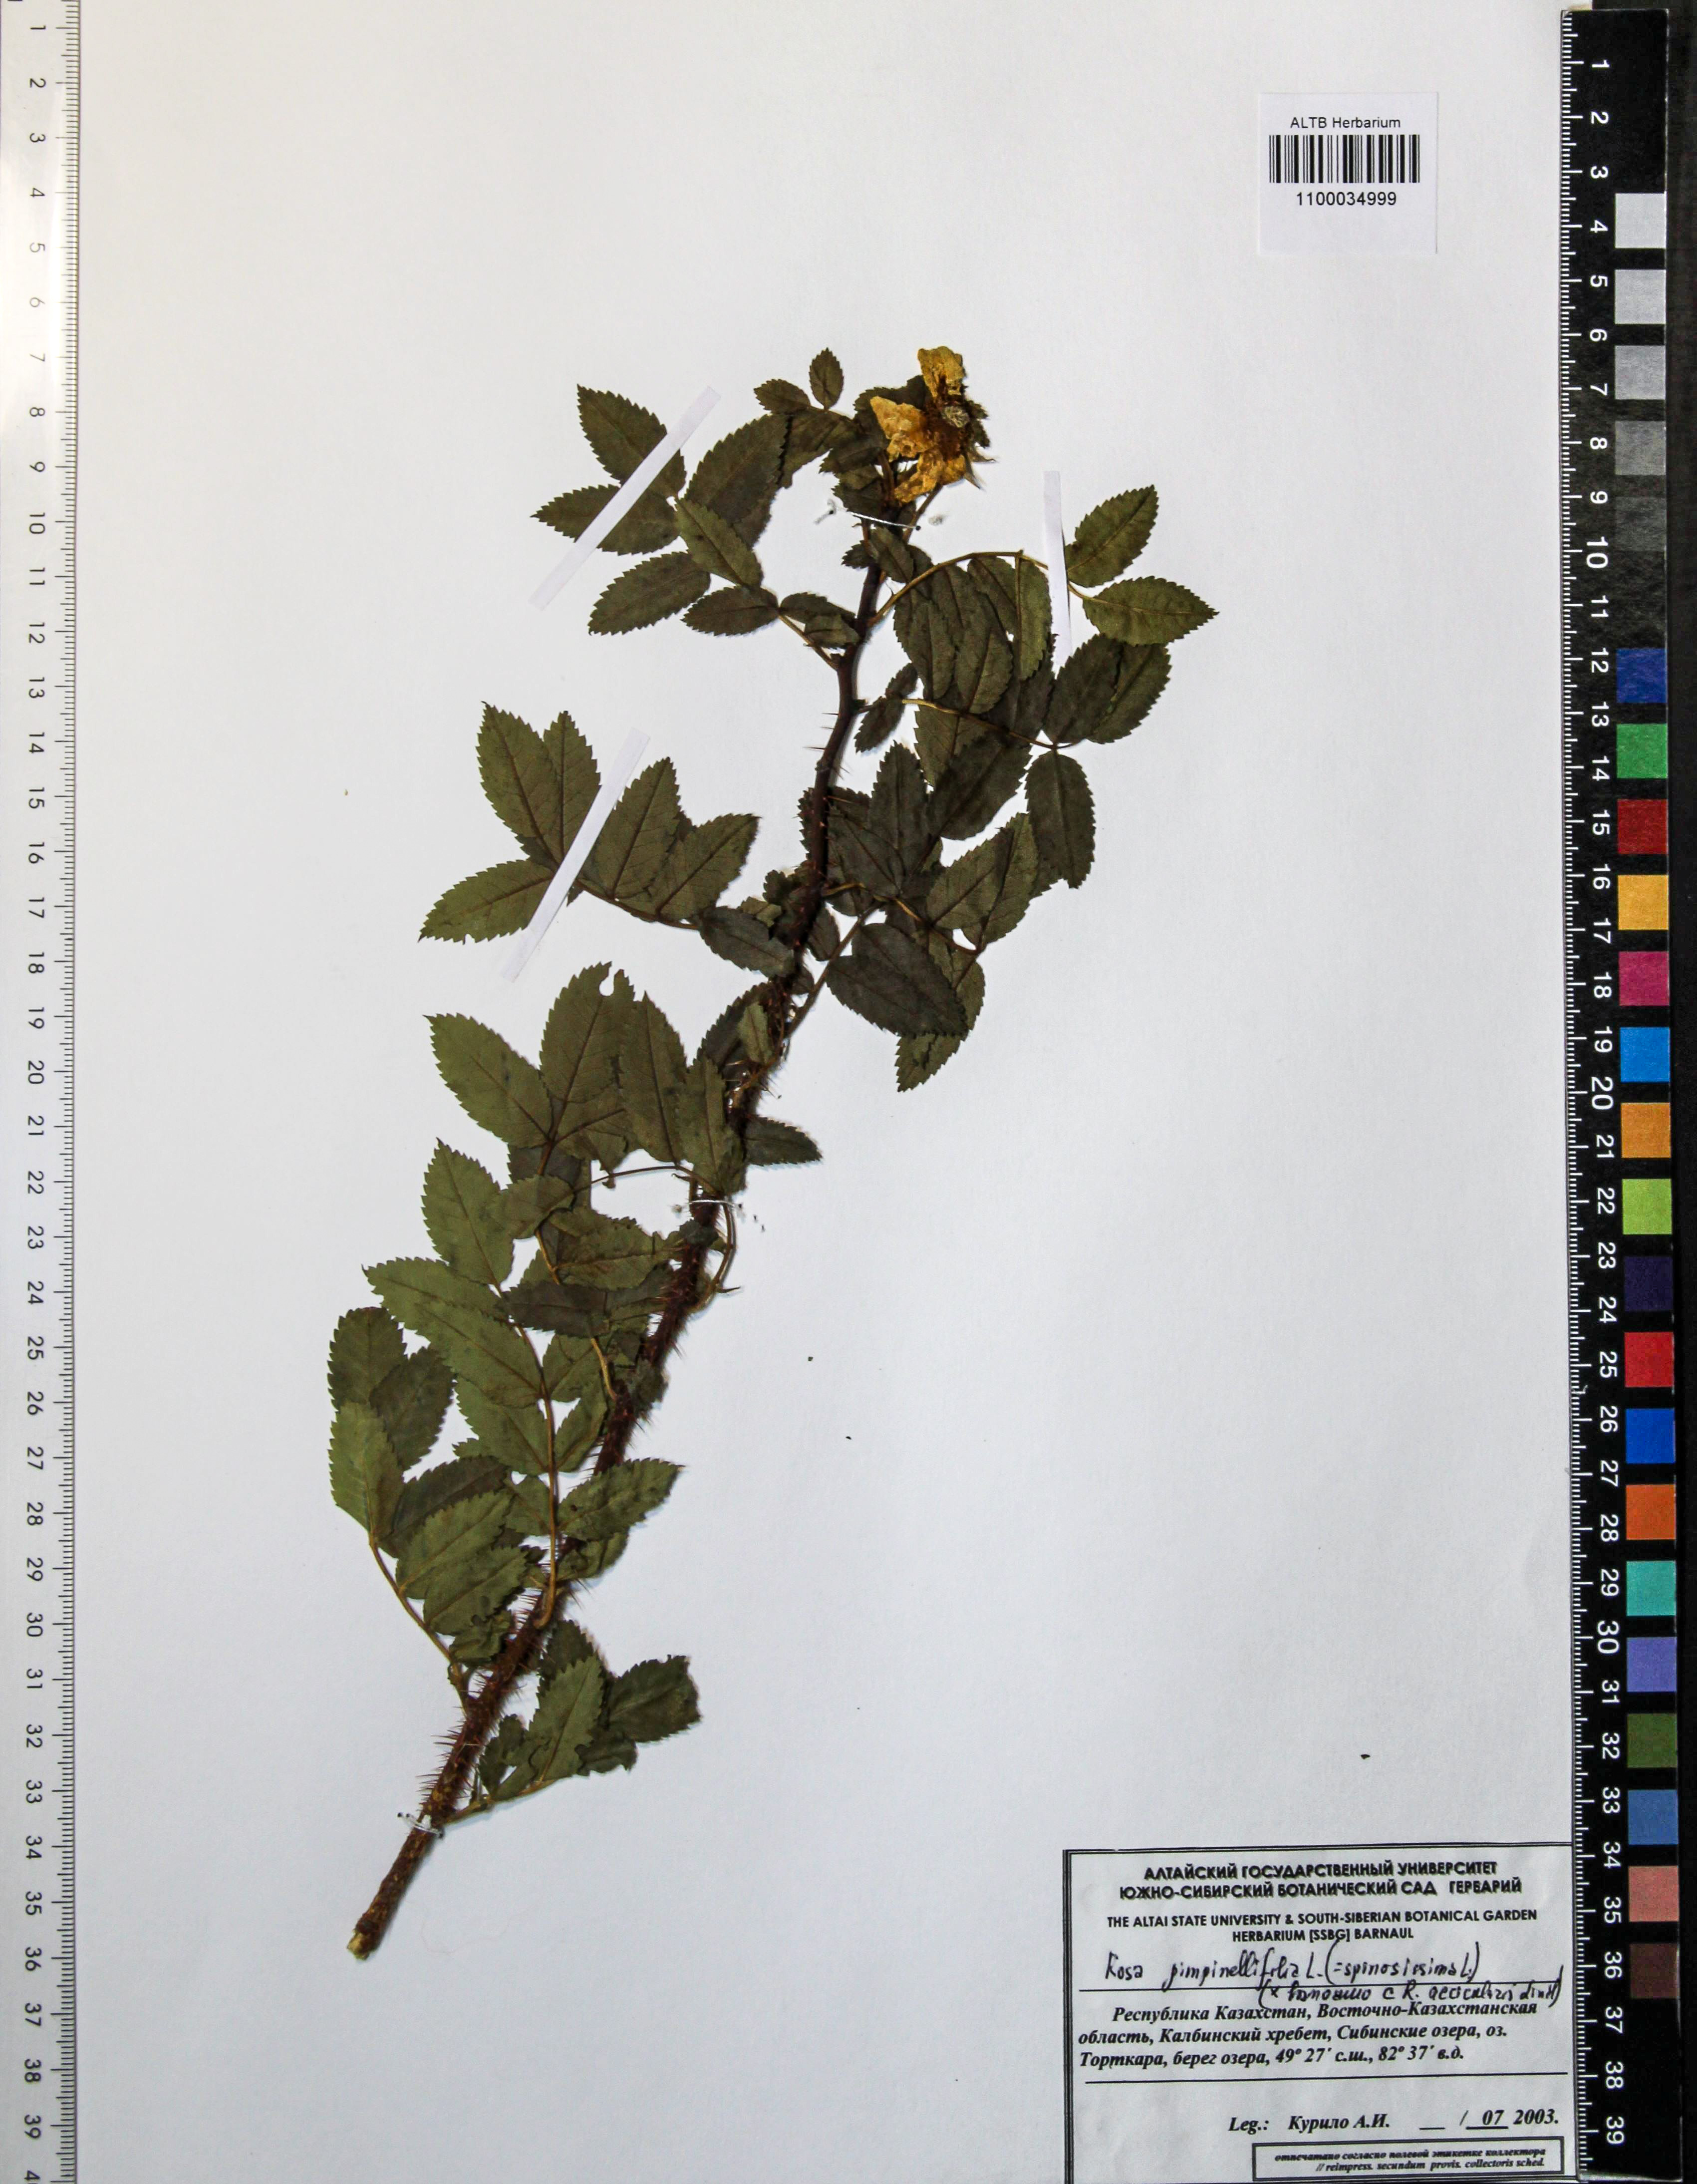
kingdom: Plantae
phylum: Tracheophyta
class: Magnoliopsida
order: Rosales
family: Rosaceae
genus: Rosa
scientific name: Rosa spinosissima
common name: Burnet rose
